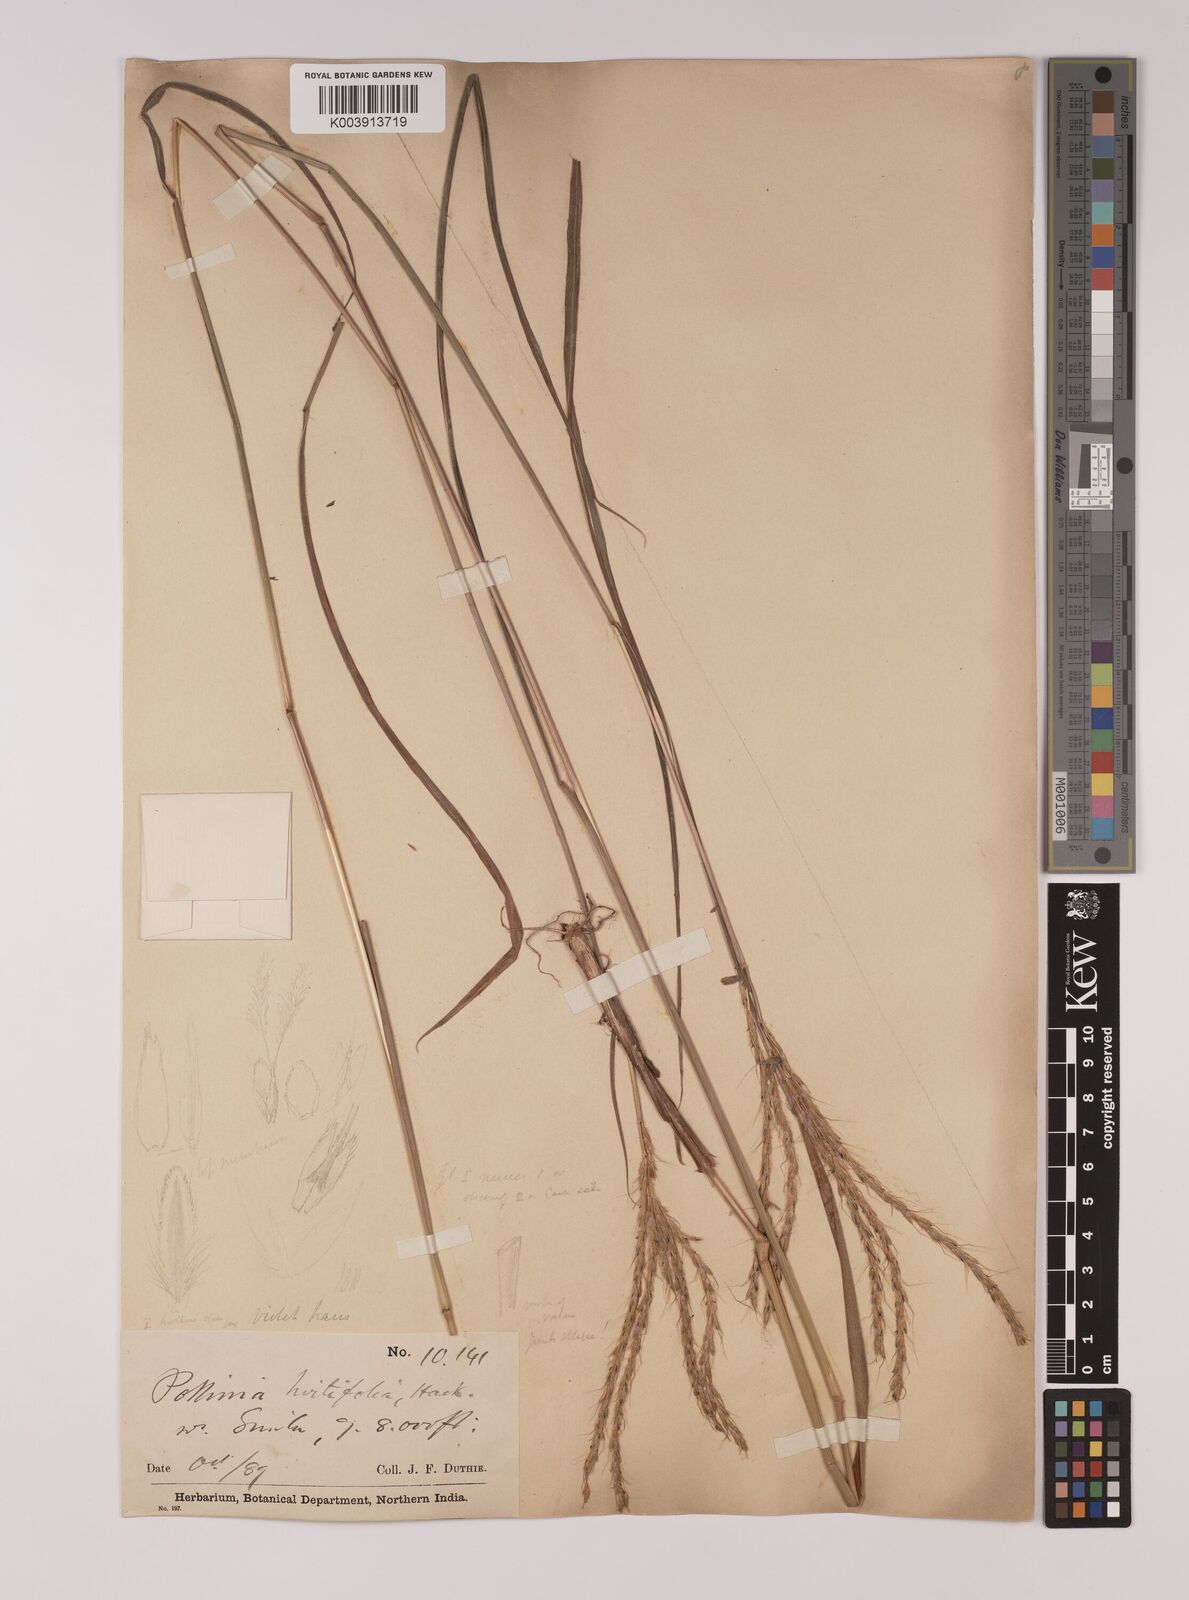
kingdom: Plantae
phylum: Tracheophyta
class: Liliopsida
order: Poales
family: Poaceae
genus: Eulalia
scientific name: Eulalia hirtifolia
